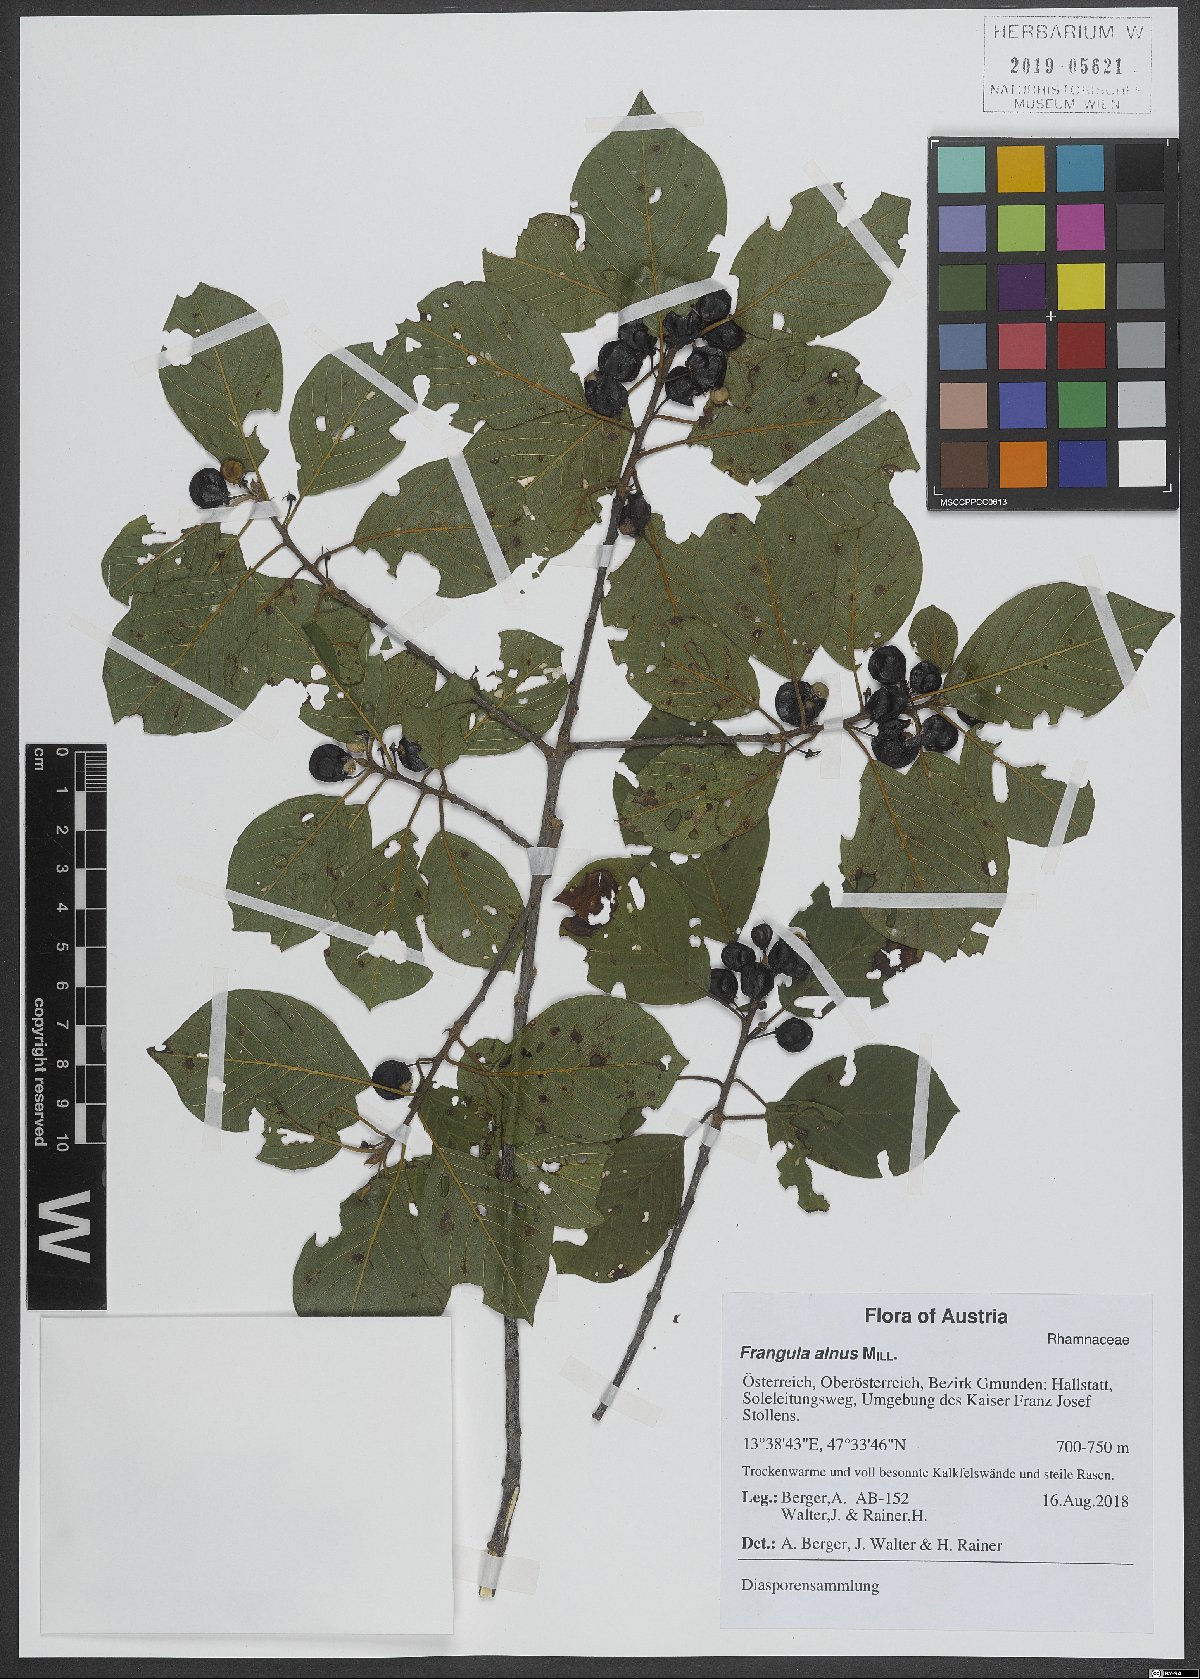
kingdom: Plantae
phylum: Tracheophyta
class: Magnoliopsida
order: Rosales
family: Rhamnaceae
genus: Frangula
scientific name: Frangula alnus
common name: Alder buckthorn
